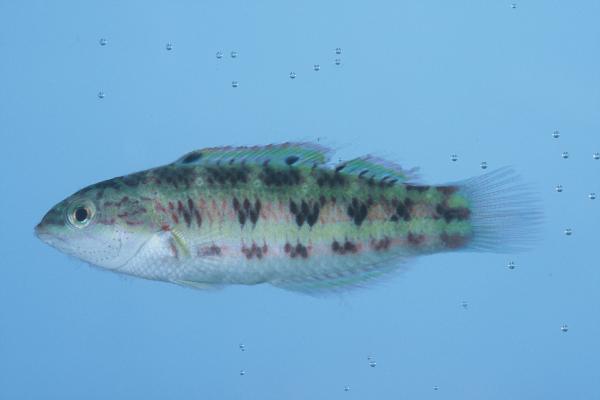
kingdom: Animalia
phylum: Chordata
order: Perciformes
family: Labridae
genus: Thalassoma
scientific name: Thalassoma purpureum
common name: Parrotfish
